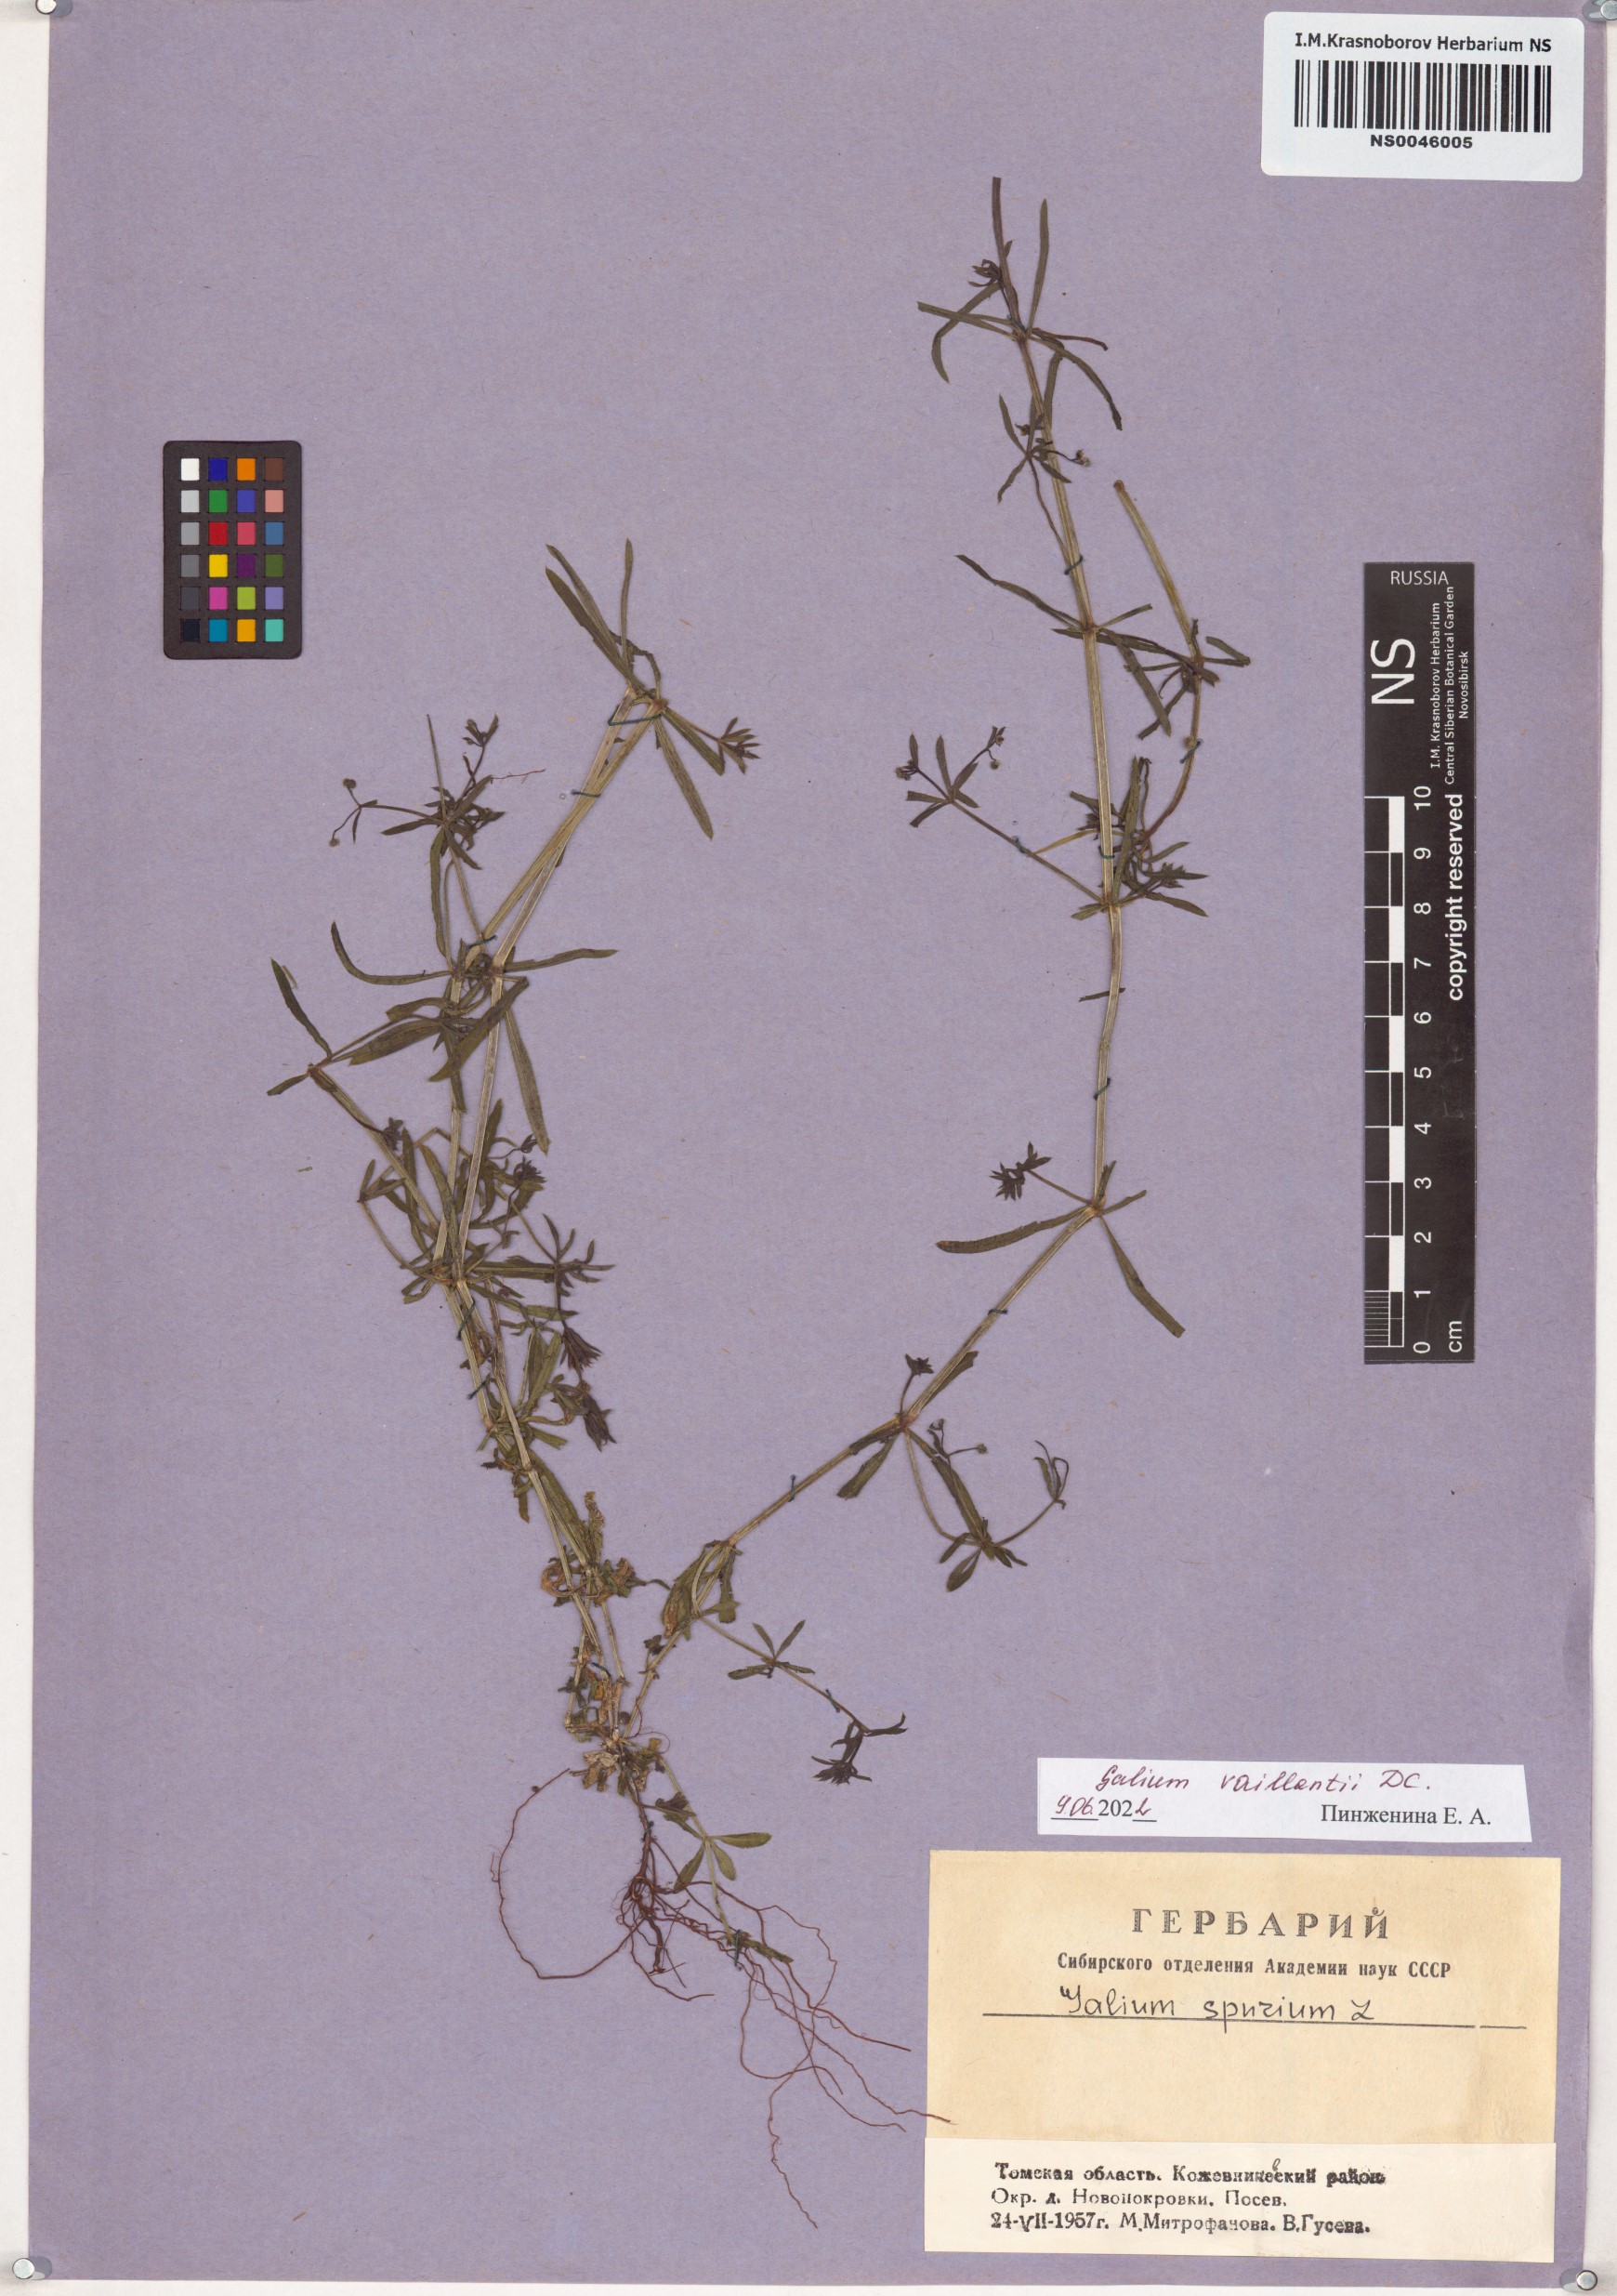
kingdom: Plantae
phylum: Tracheophyta
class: Magnoliopsida
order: Gentianales
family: Rubiaceae
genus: Galium
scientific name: Galium spurium
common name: False cleavers
